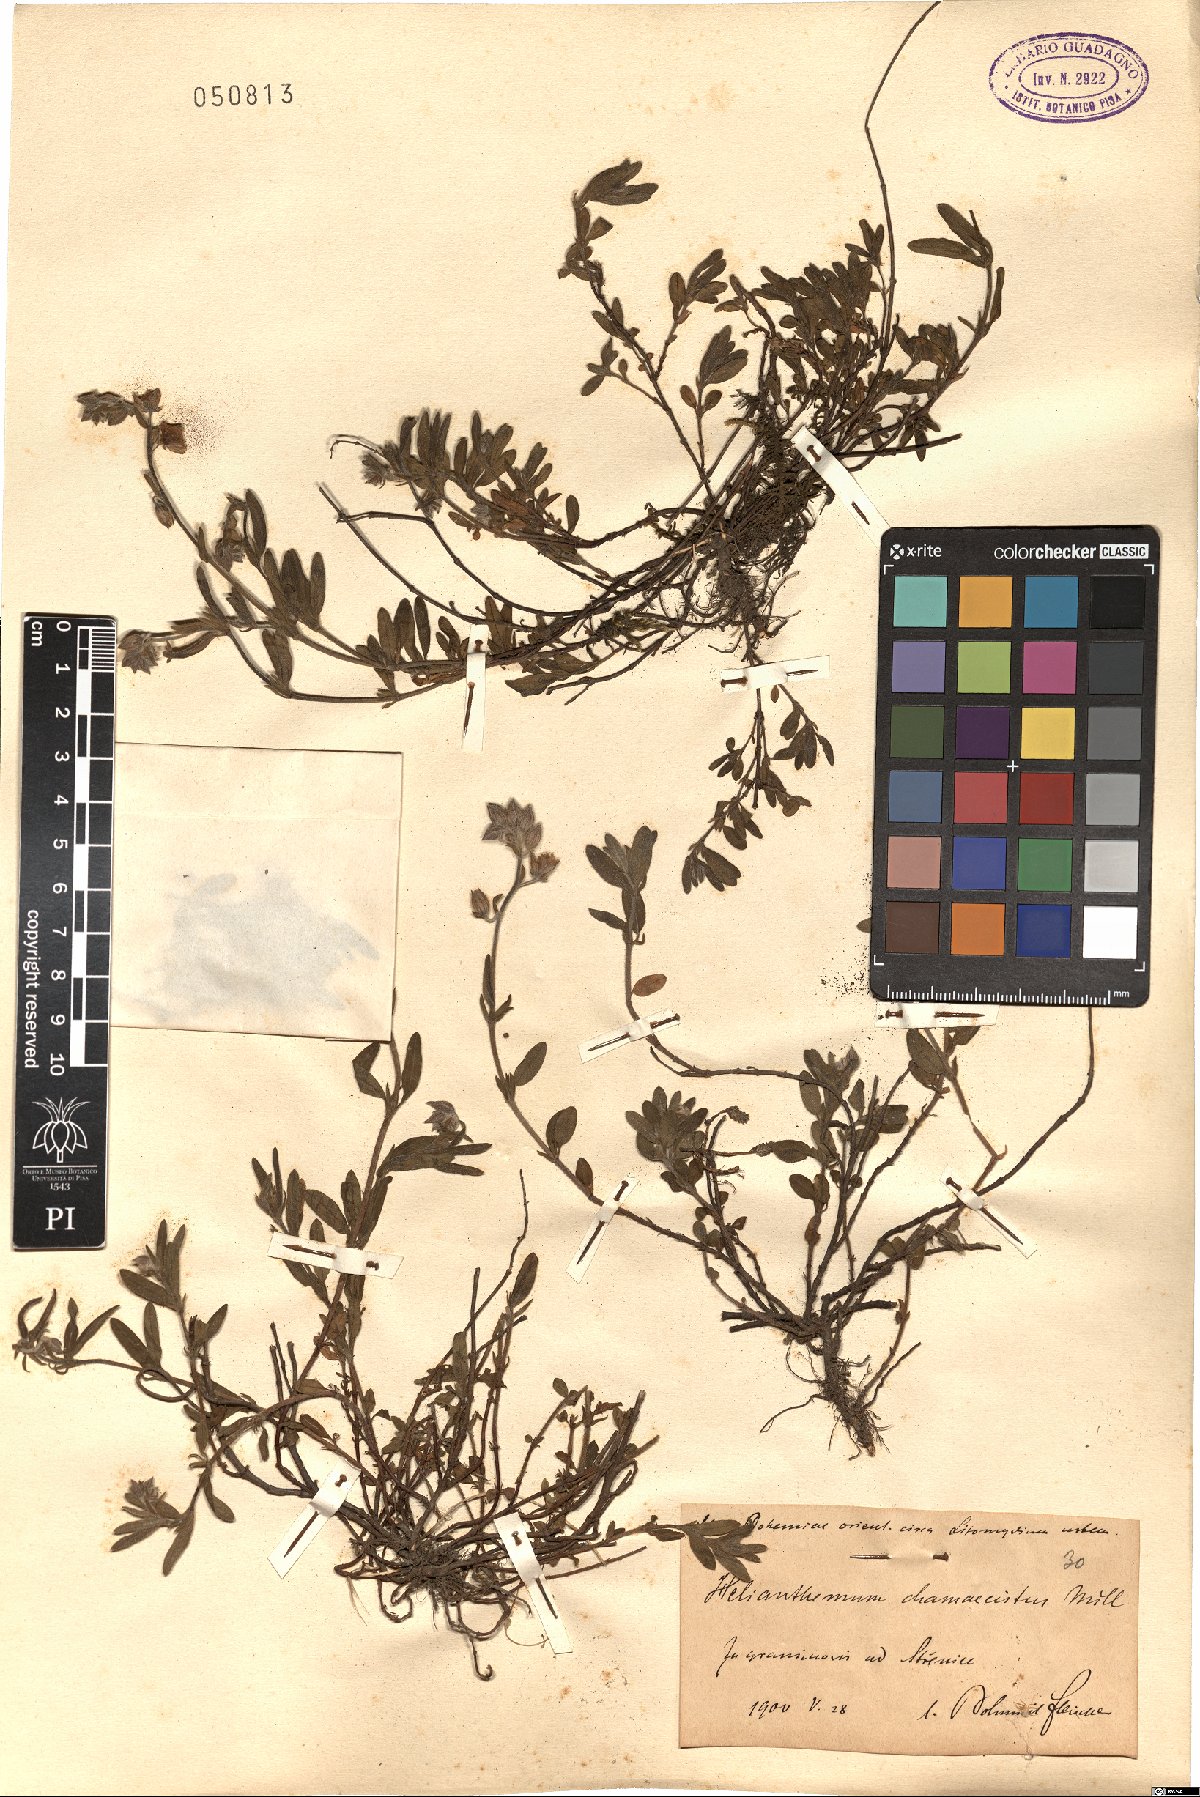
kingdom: Plantae
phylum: Tracheophyta
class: Magnoliopsida
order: Malvales
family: Cistaceae
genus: Helianthemum
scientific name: Helianthemum nummularium
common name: Common rock-rose
